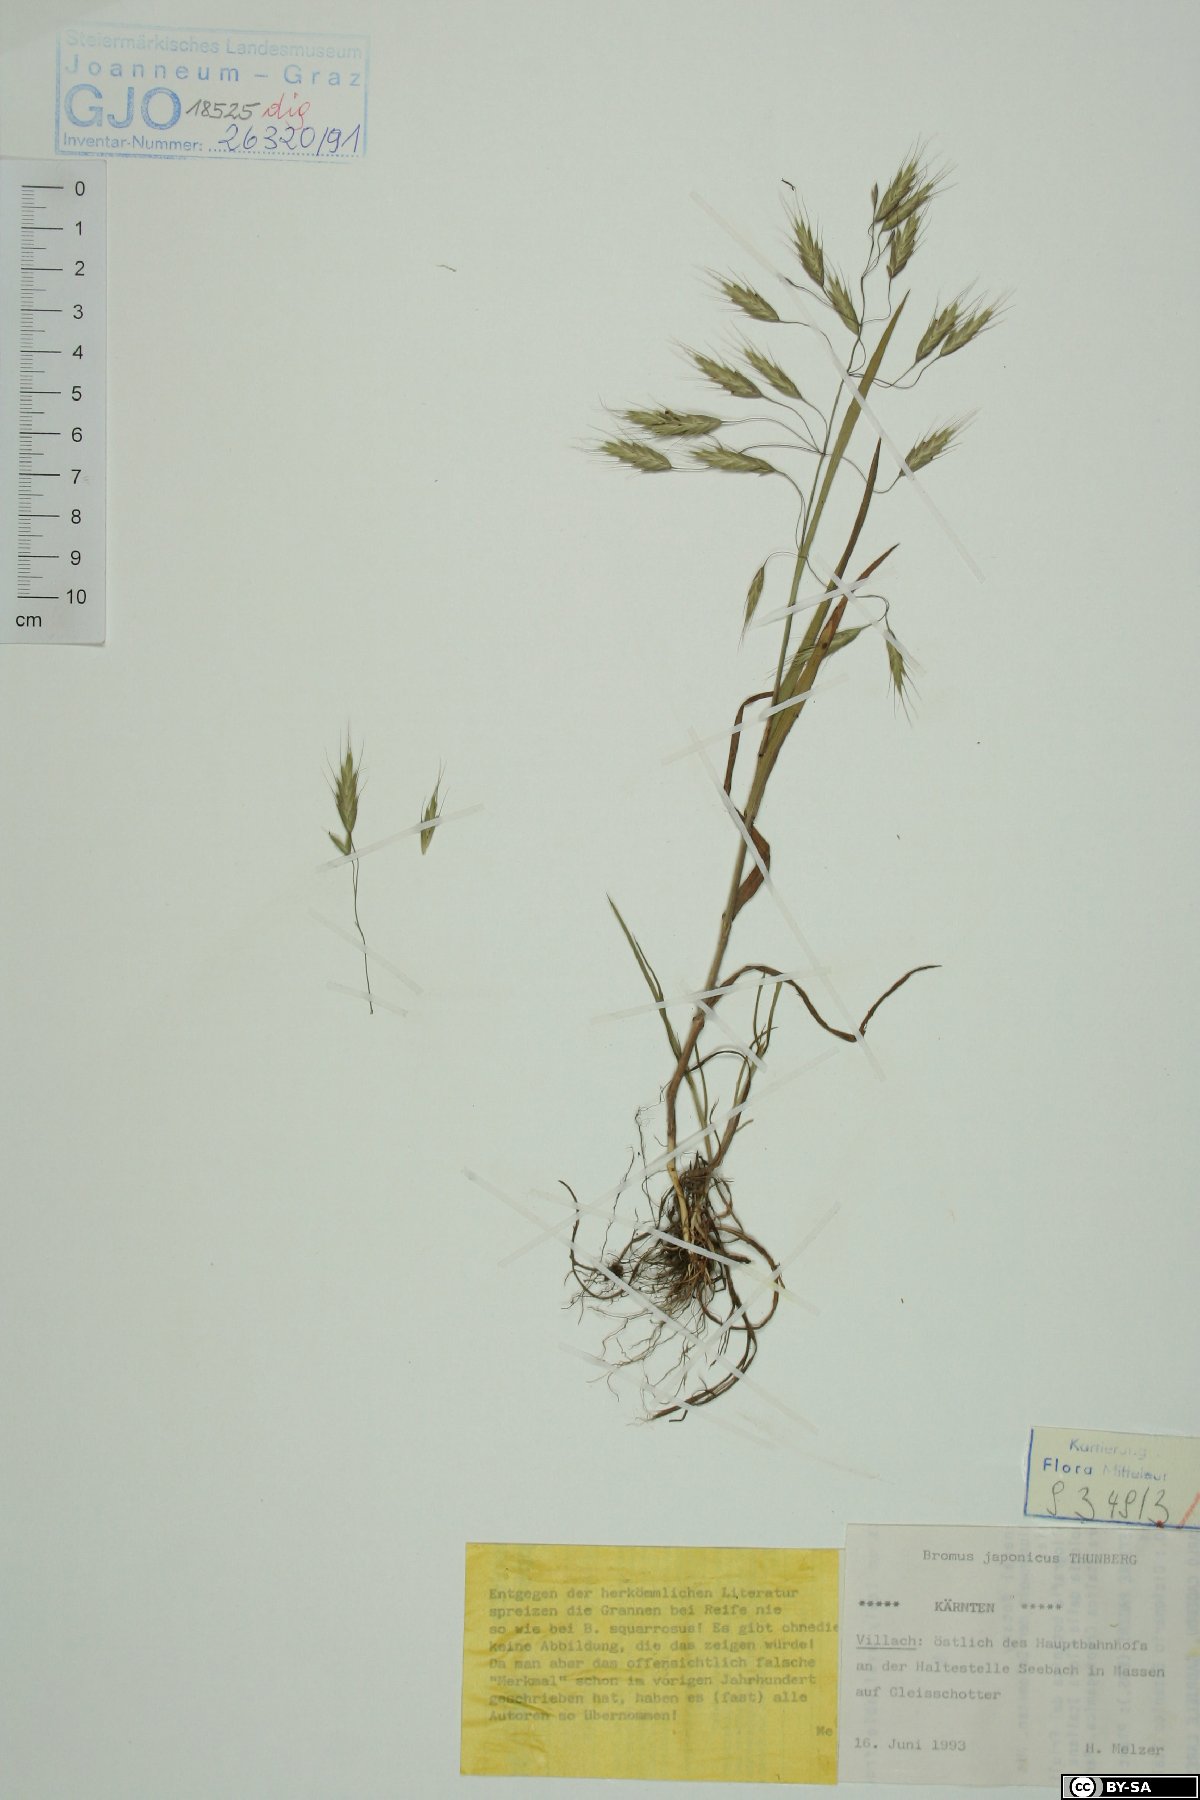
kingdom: Plantae
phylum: Tracheophyta
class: Liliopsida
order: Poales
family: Poaceae
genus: Bromus
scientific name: Bromus japonicus
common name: Japanese brome
